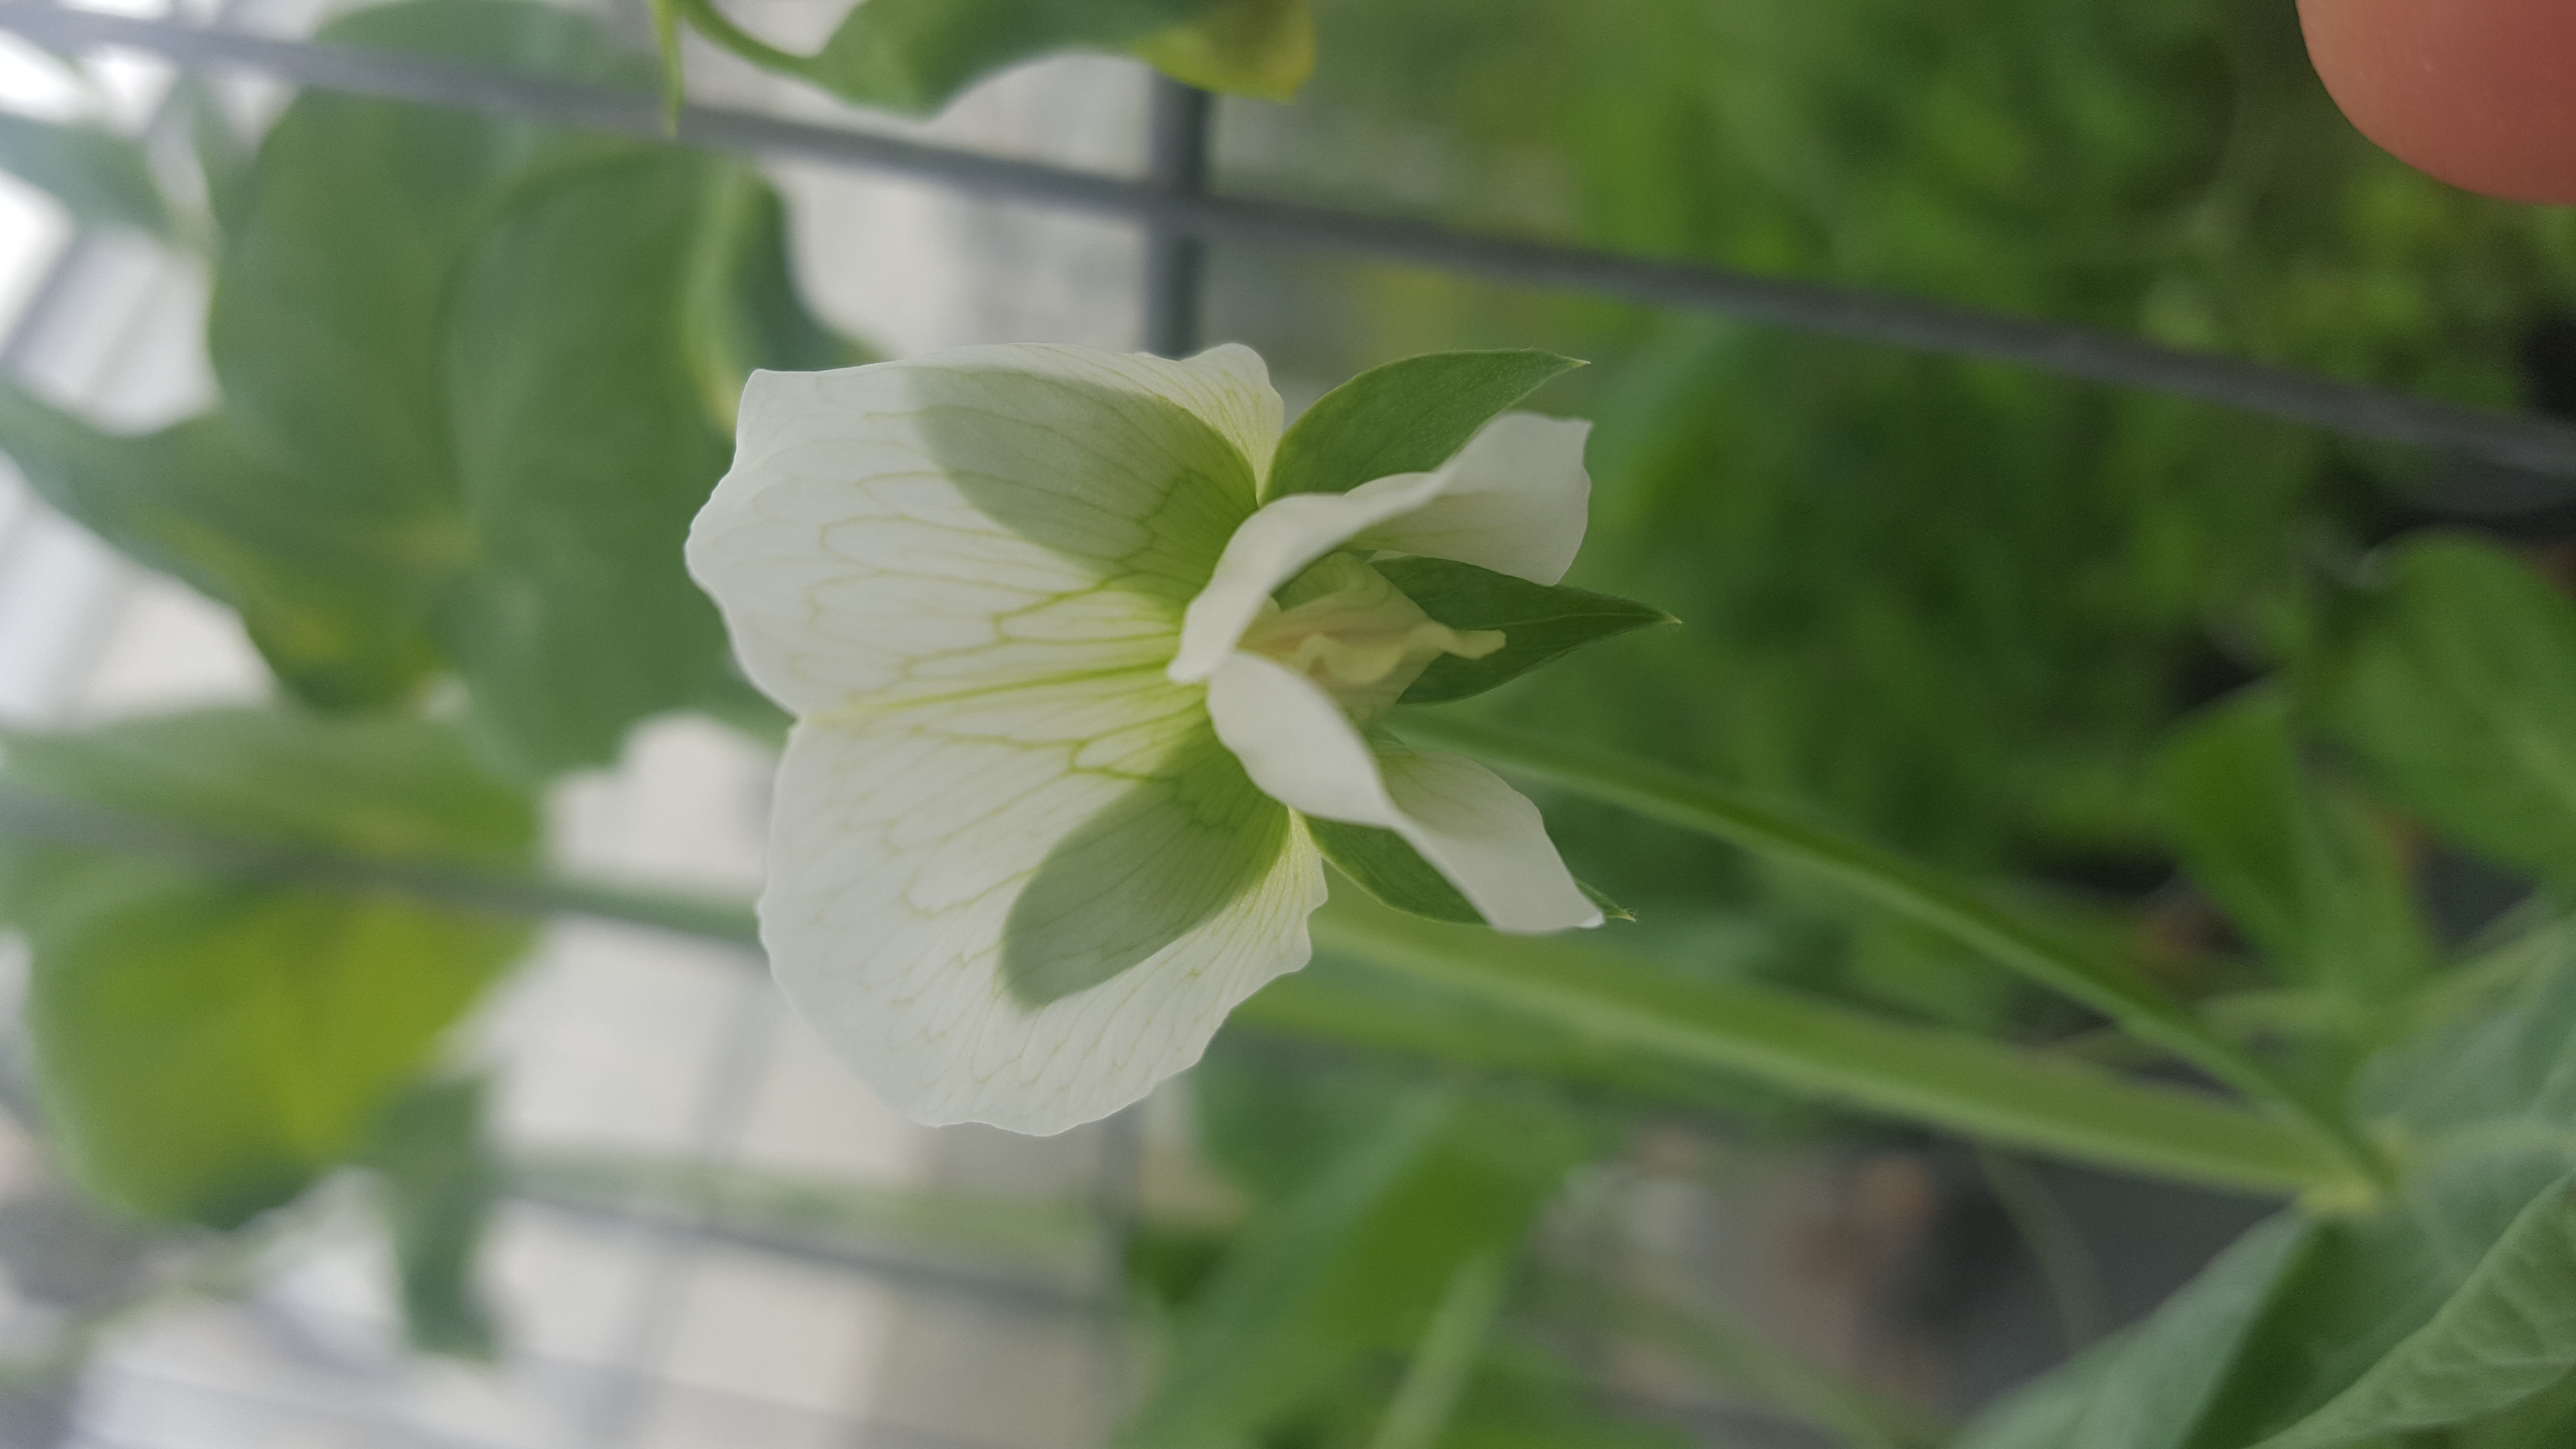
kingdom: Plantae
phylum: Tracheophyta
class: Magnoliopsida
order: Fabales
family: Fabaceae
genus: Lathyrus
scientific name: Lathyrus oleraceus
